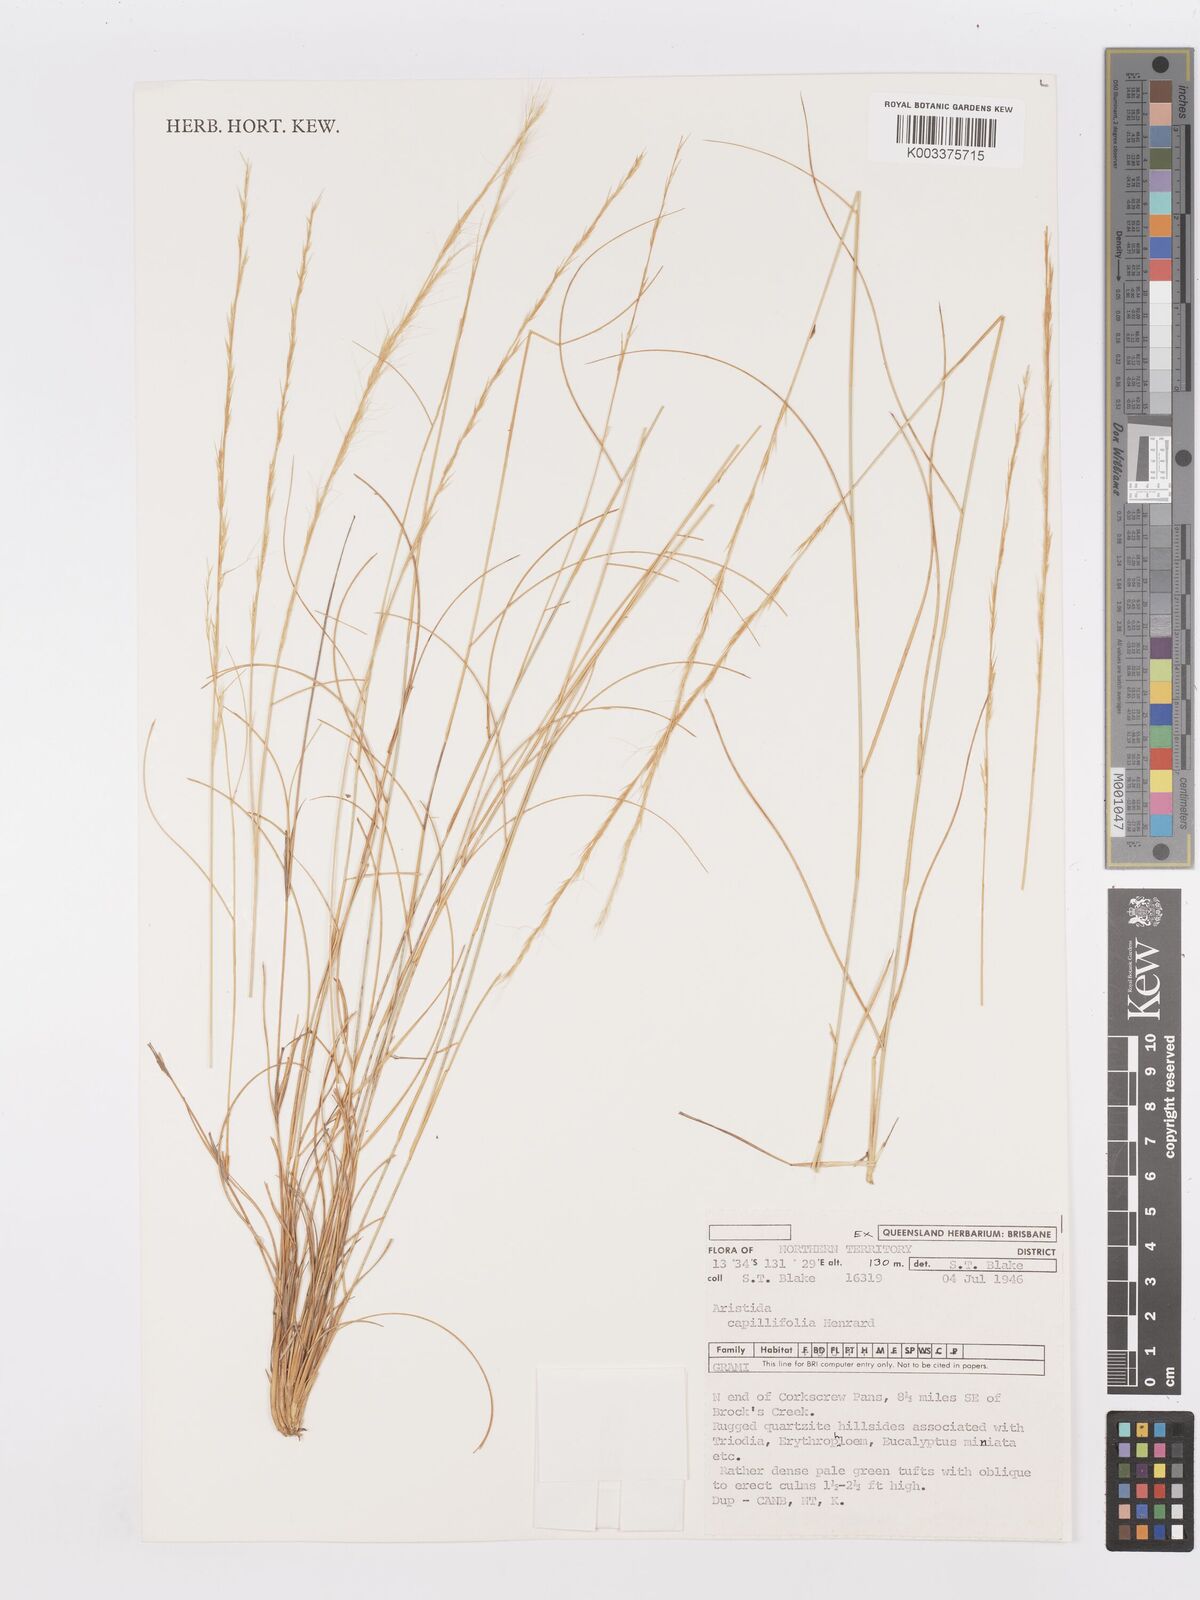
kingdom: Plantae
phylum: Tracheophyta
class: Liliopsida
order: Poales
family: Poaceae
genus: Aristida
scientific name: Aristida capillifolia
